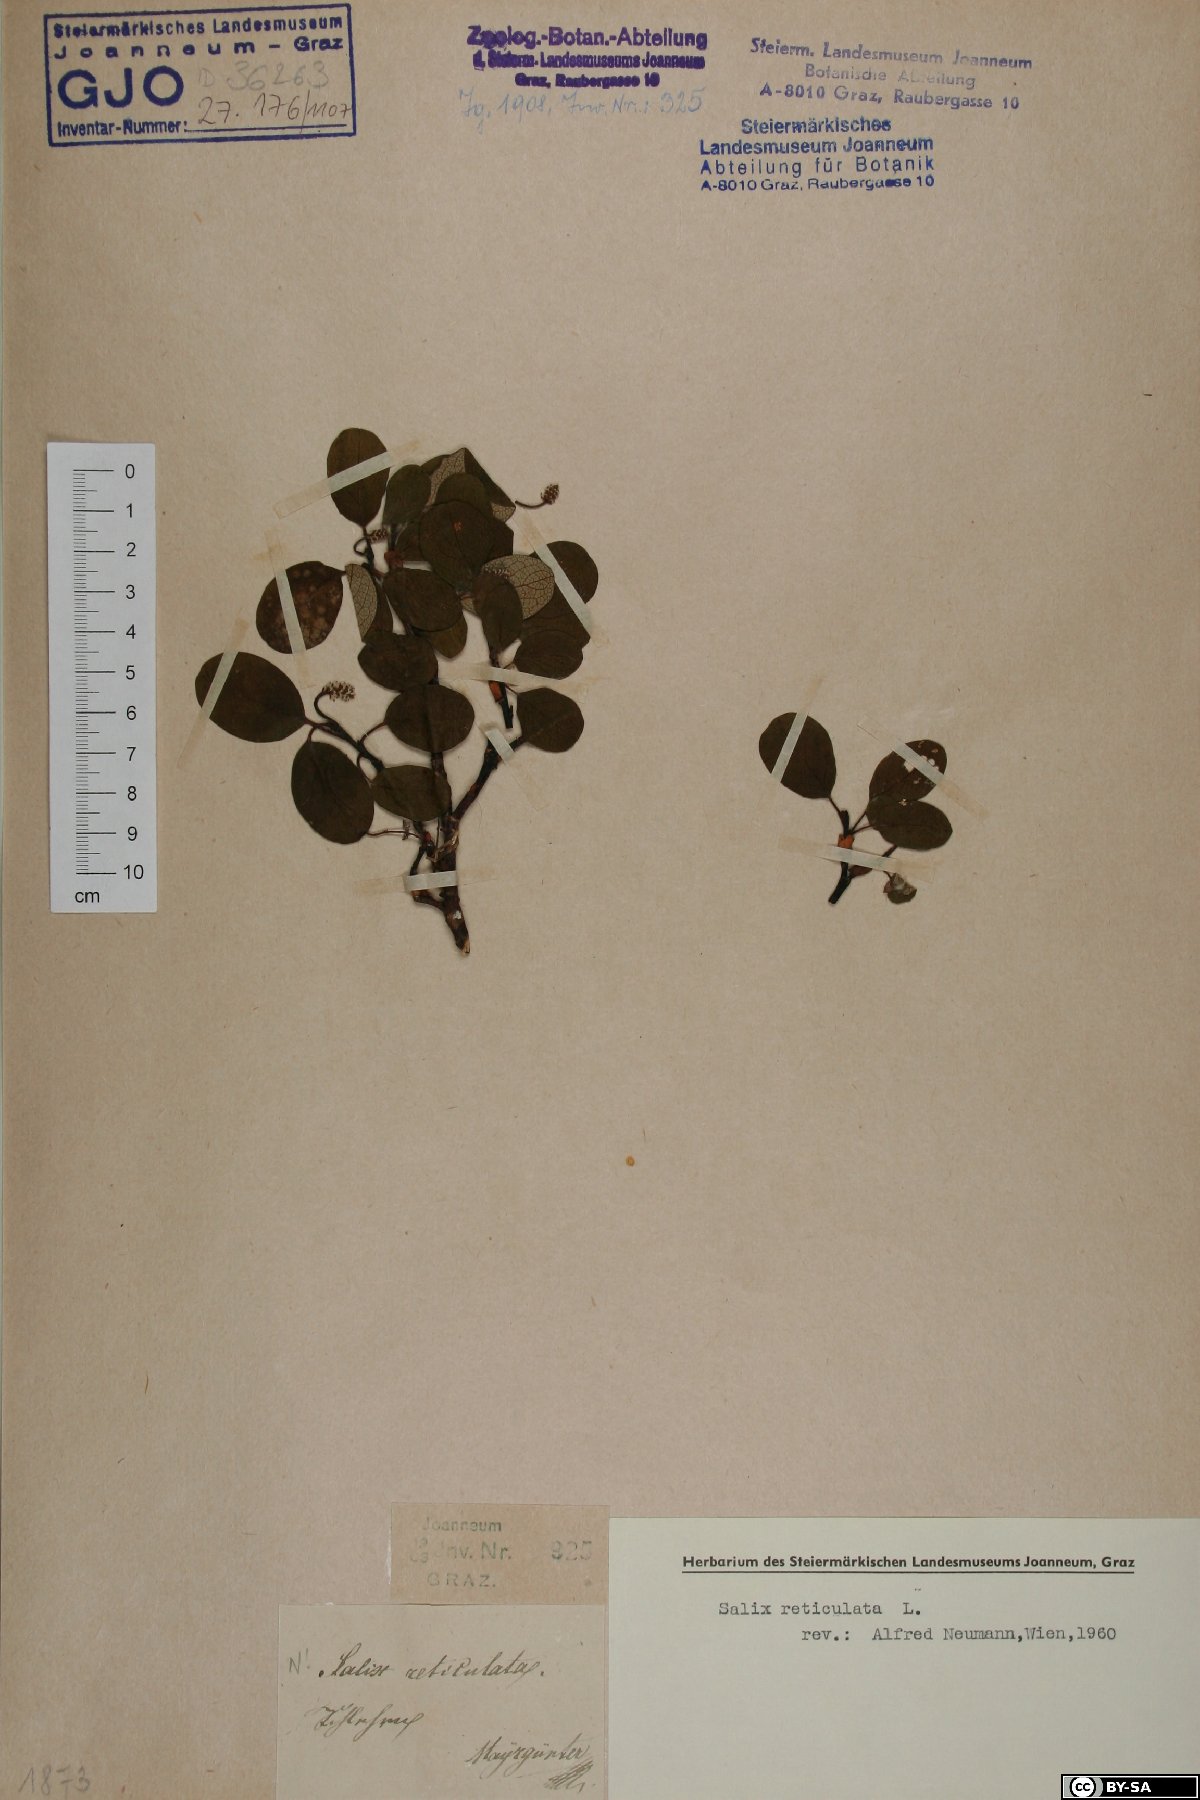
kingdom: Plantae
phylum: Tracheophyta
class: Magnoliopsida
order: Malpighiales
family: Salicaceae
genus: Salix
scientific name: Salix reticulata
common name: Net-leaved willow
